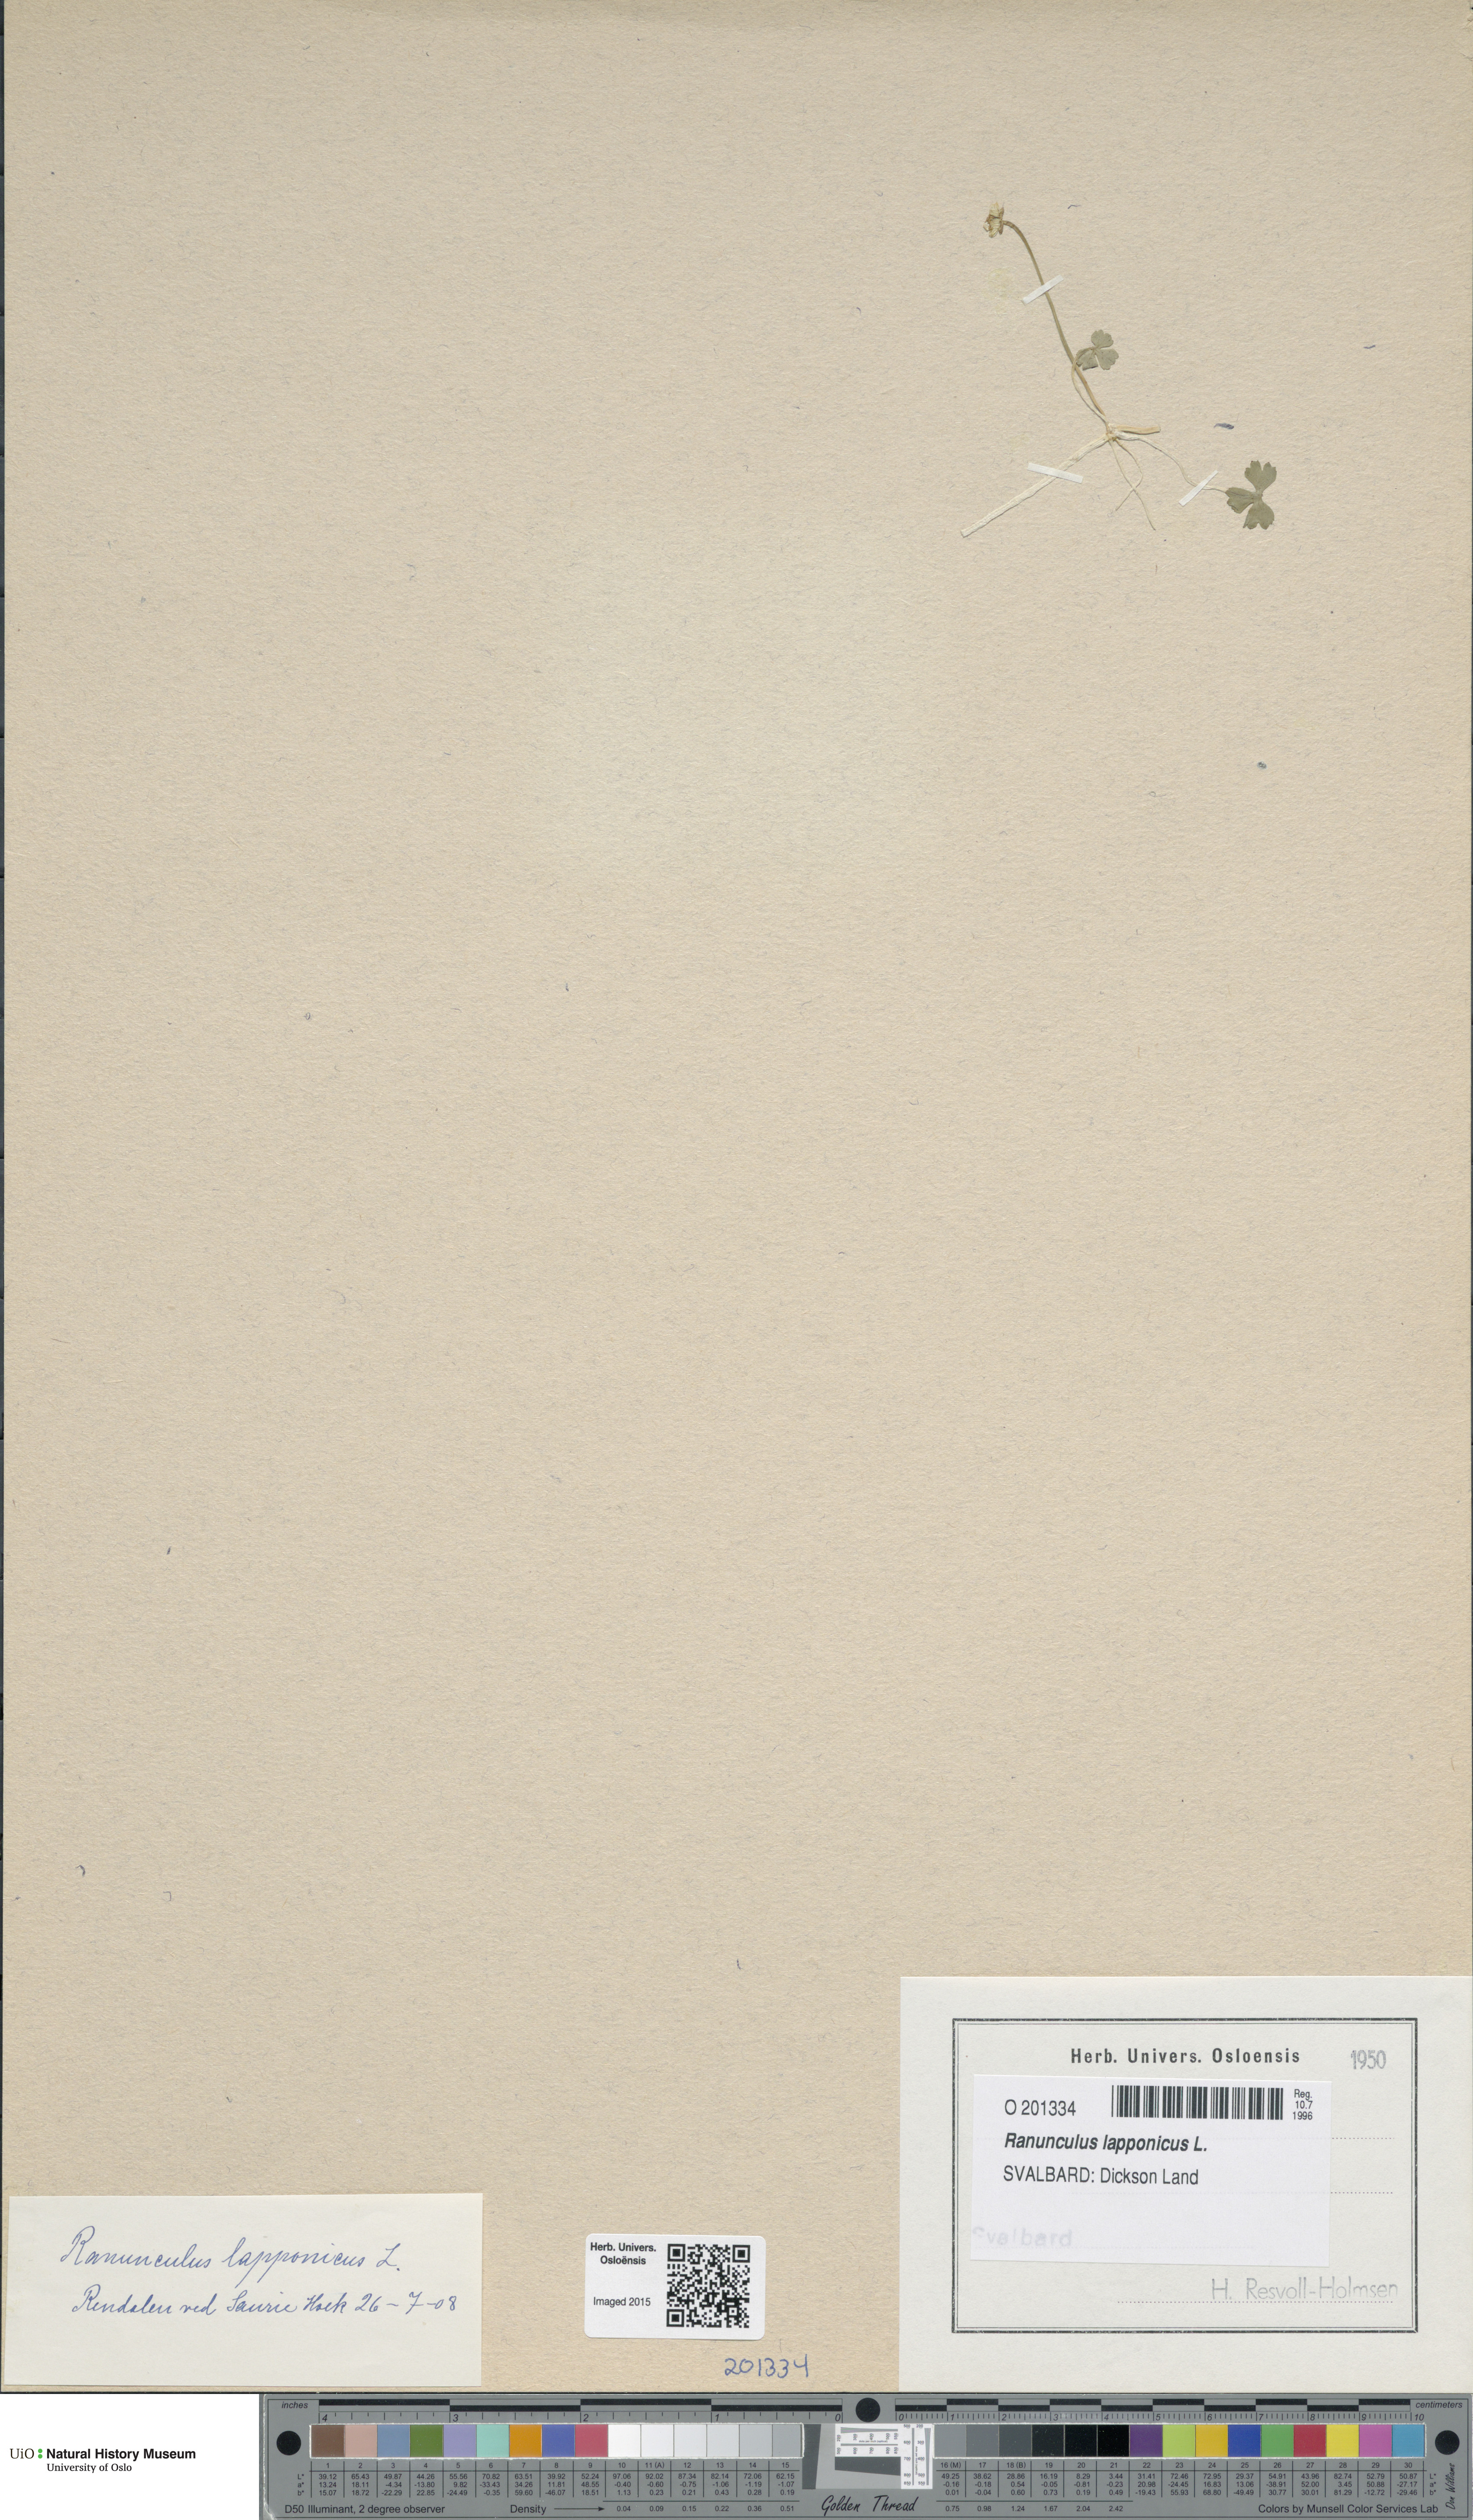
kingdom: Plantae
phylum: Tracheophyta
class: Magnoliopsida
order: Ranunculales
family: Ranunculaceae
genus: Coptidium
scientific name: Coptidium lapponicum
